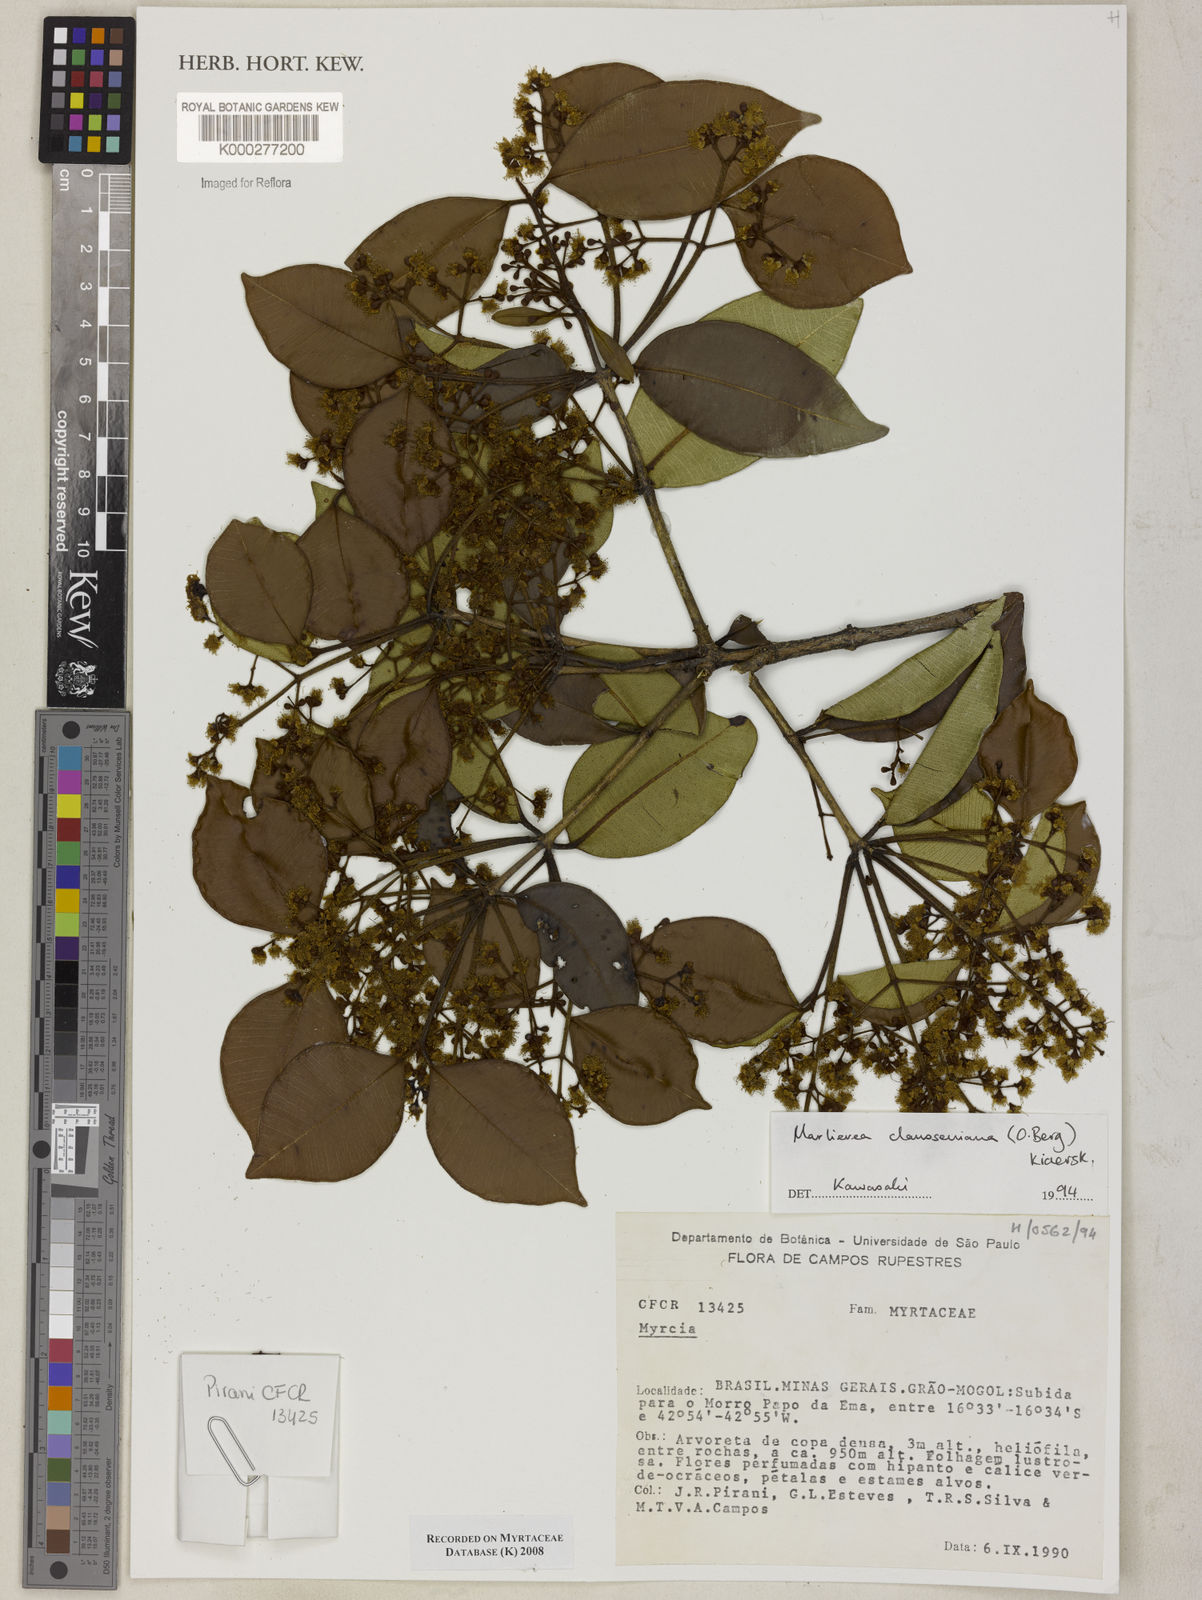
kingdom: Plantae
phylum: Tracheophyta
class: Magnoliopsida
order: Myrtales
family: Myrtaceae
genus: Marlierea
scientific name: Marlierea clausseniana
